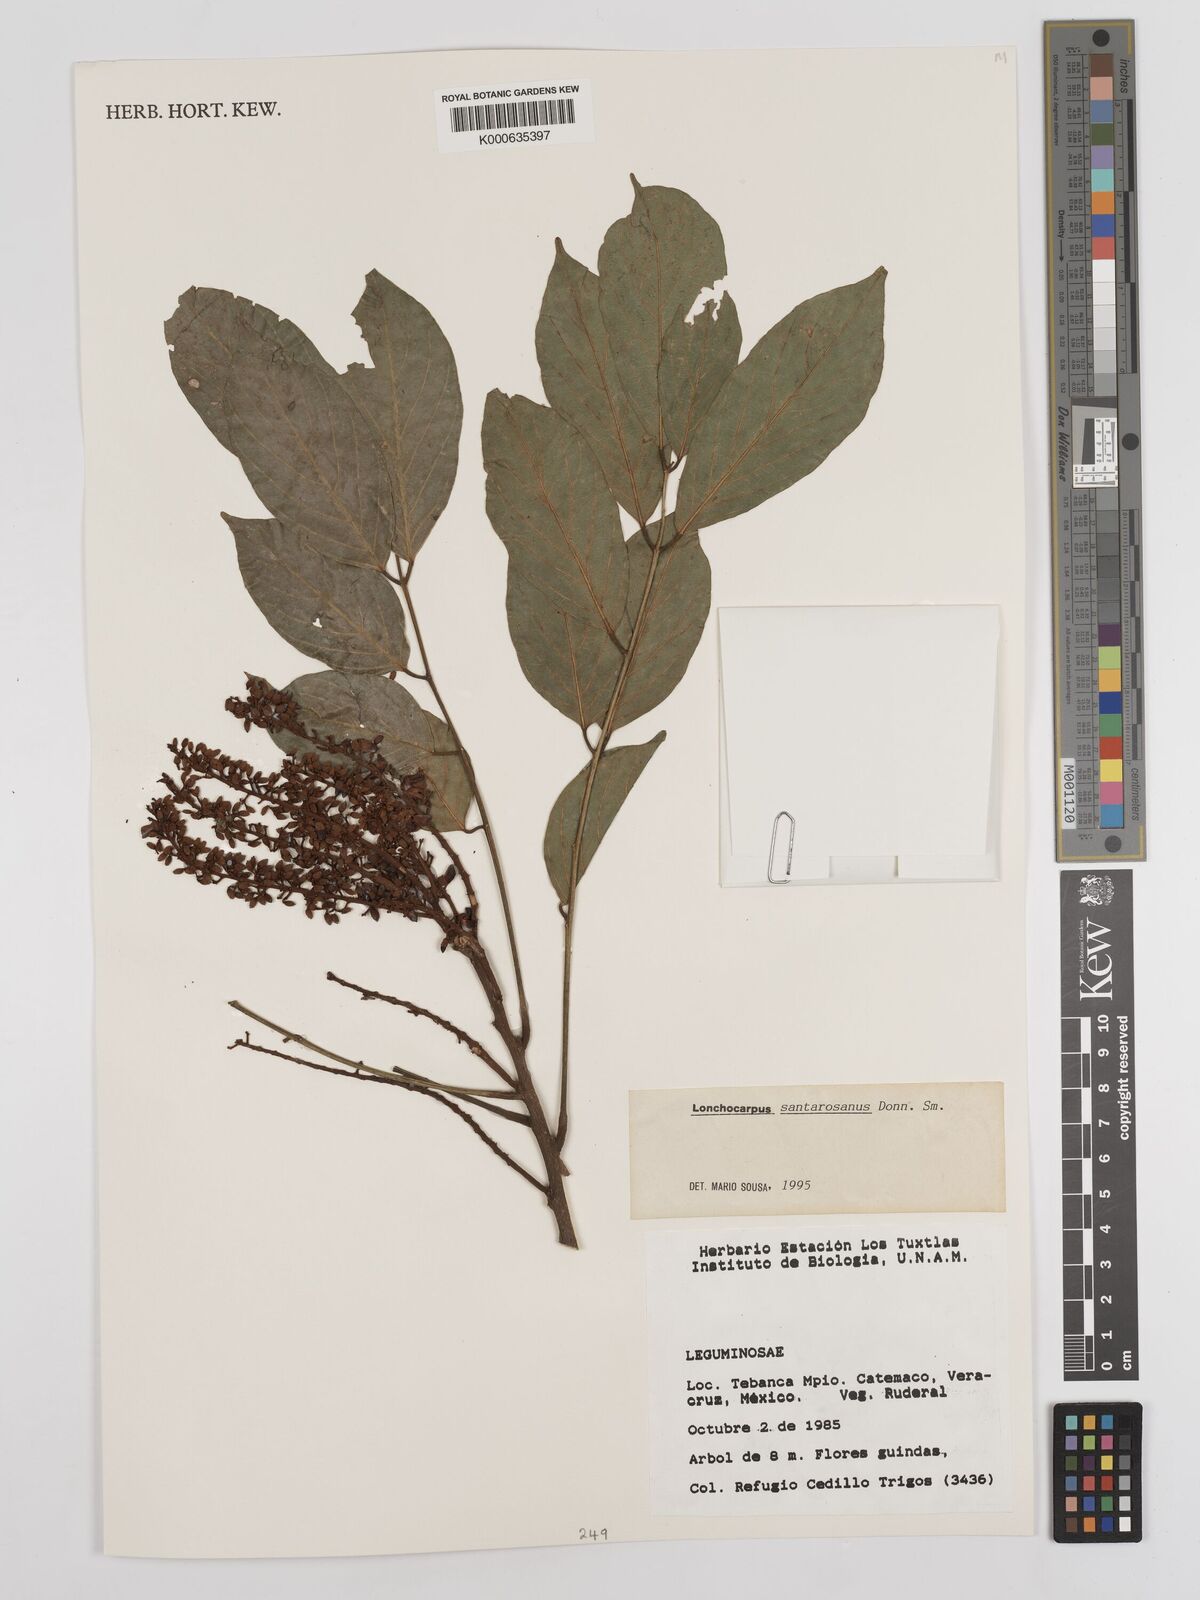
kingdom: Plantae
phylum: Tracheophyta
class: Magnoliopsida
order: Fabales
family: Fabaceae
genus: Lonchocarpus
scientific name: Lonchocarpus santarosanus
